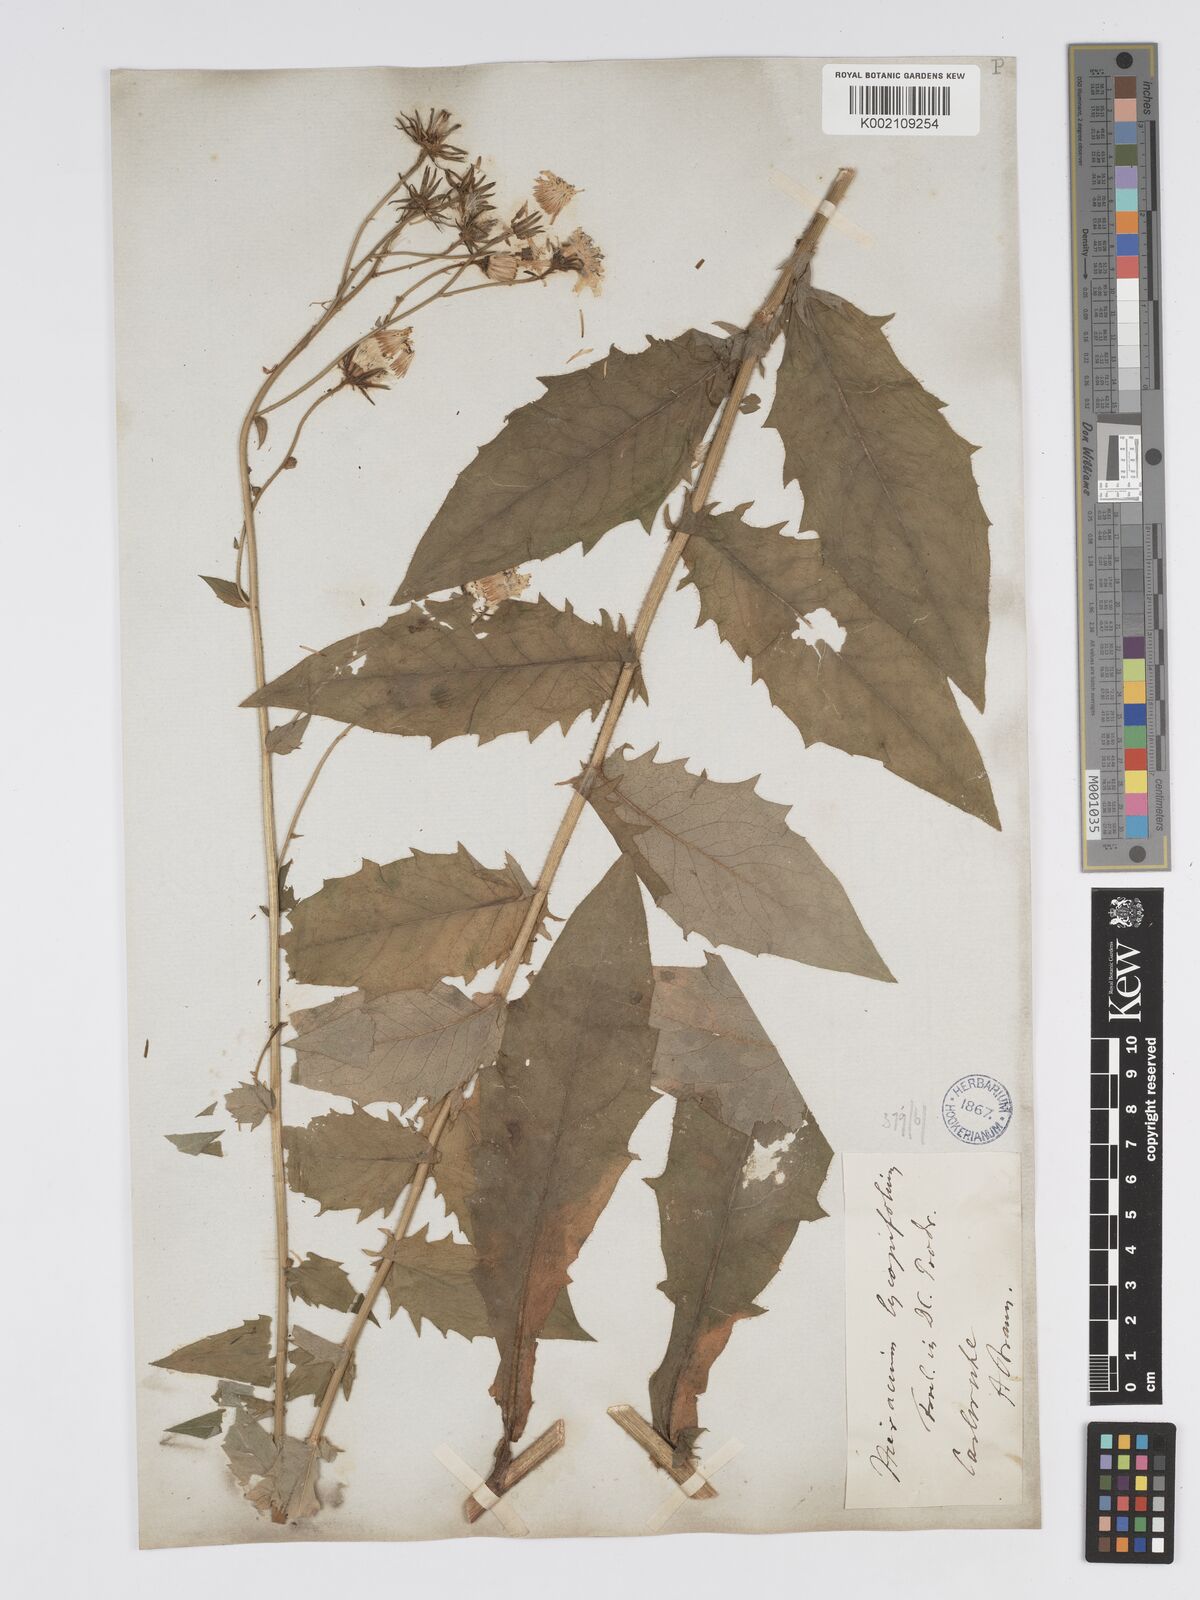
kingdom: Plantae
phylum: Tracheophyta
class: Magnoliopsida
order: Asterales
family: Asteraceae
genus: Hieracium
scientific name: Hieracium lycopifolium
